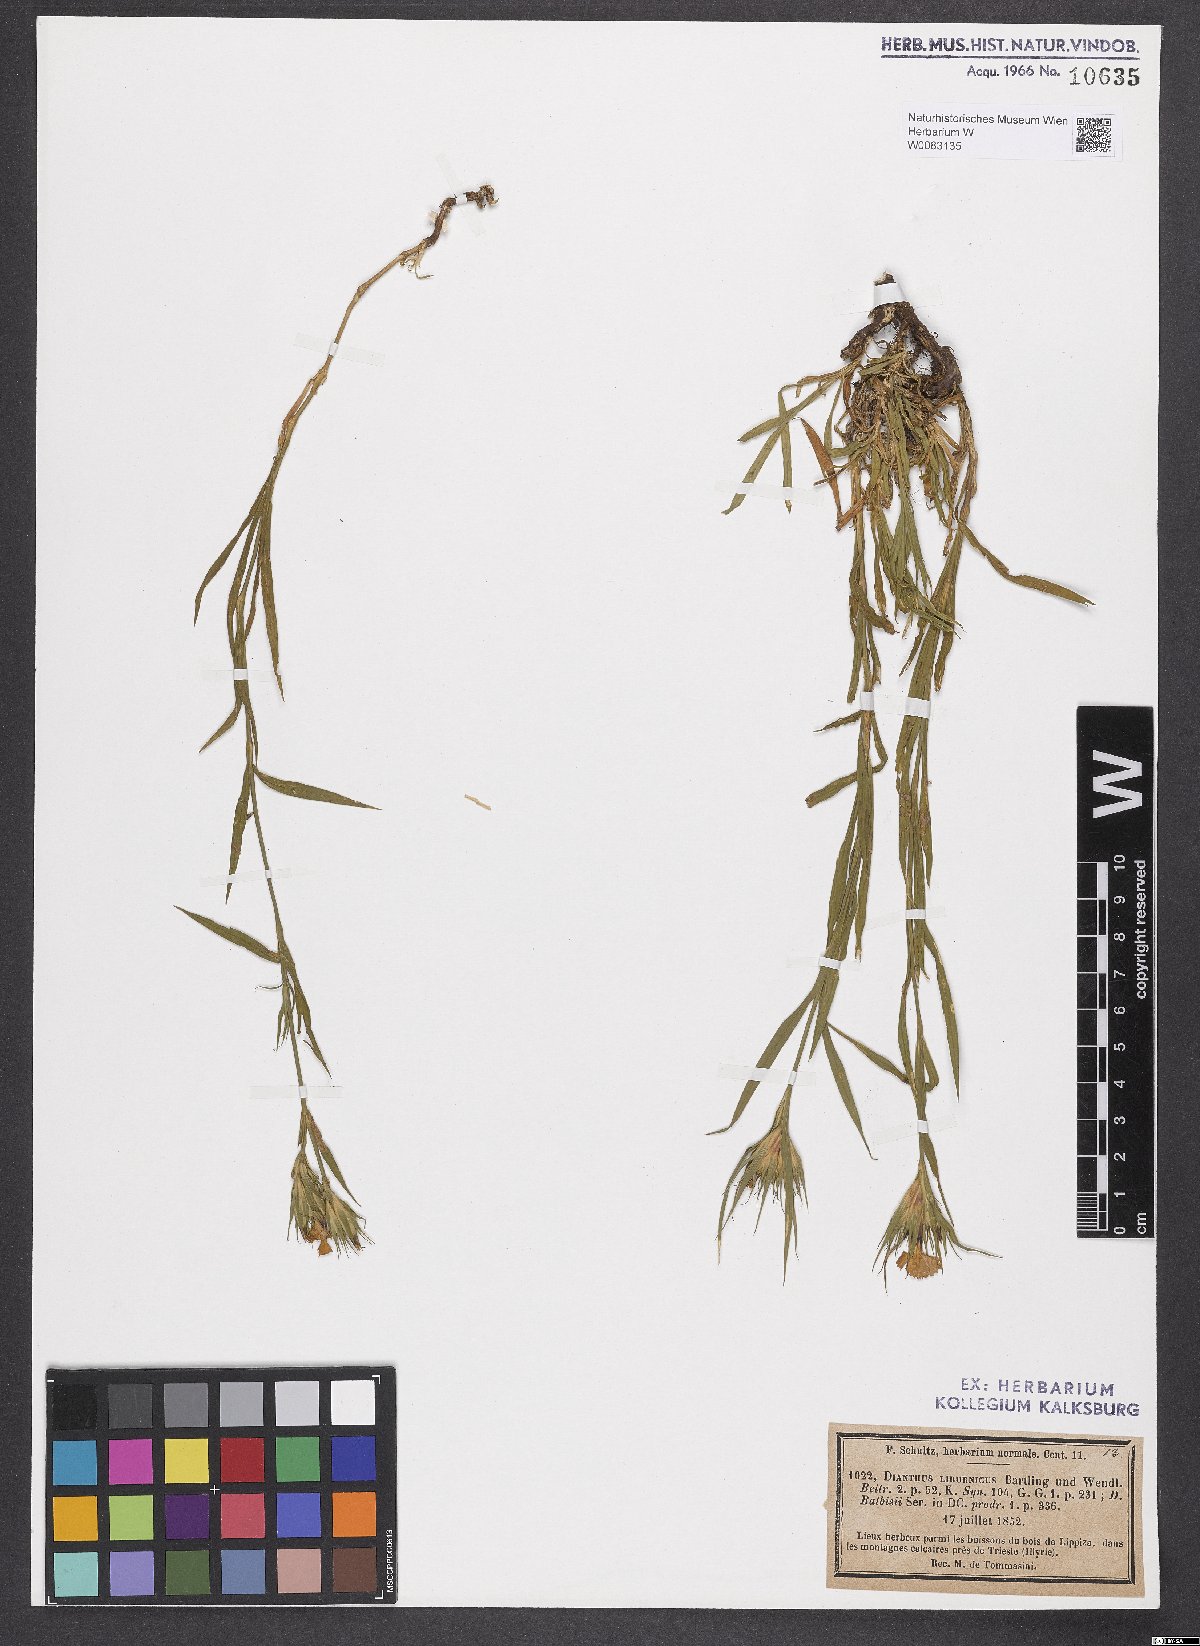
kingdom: Plantae
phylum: Tracheophyta
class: Magnoliopsida
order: Caryophyllales
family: Caryophyllaceae
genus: Dianthus
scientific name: Dianthus balbisii
